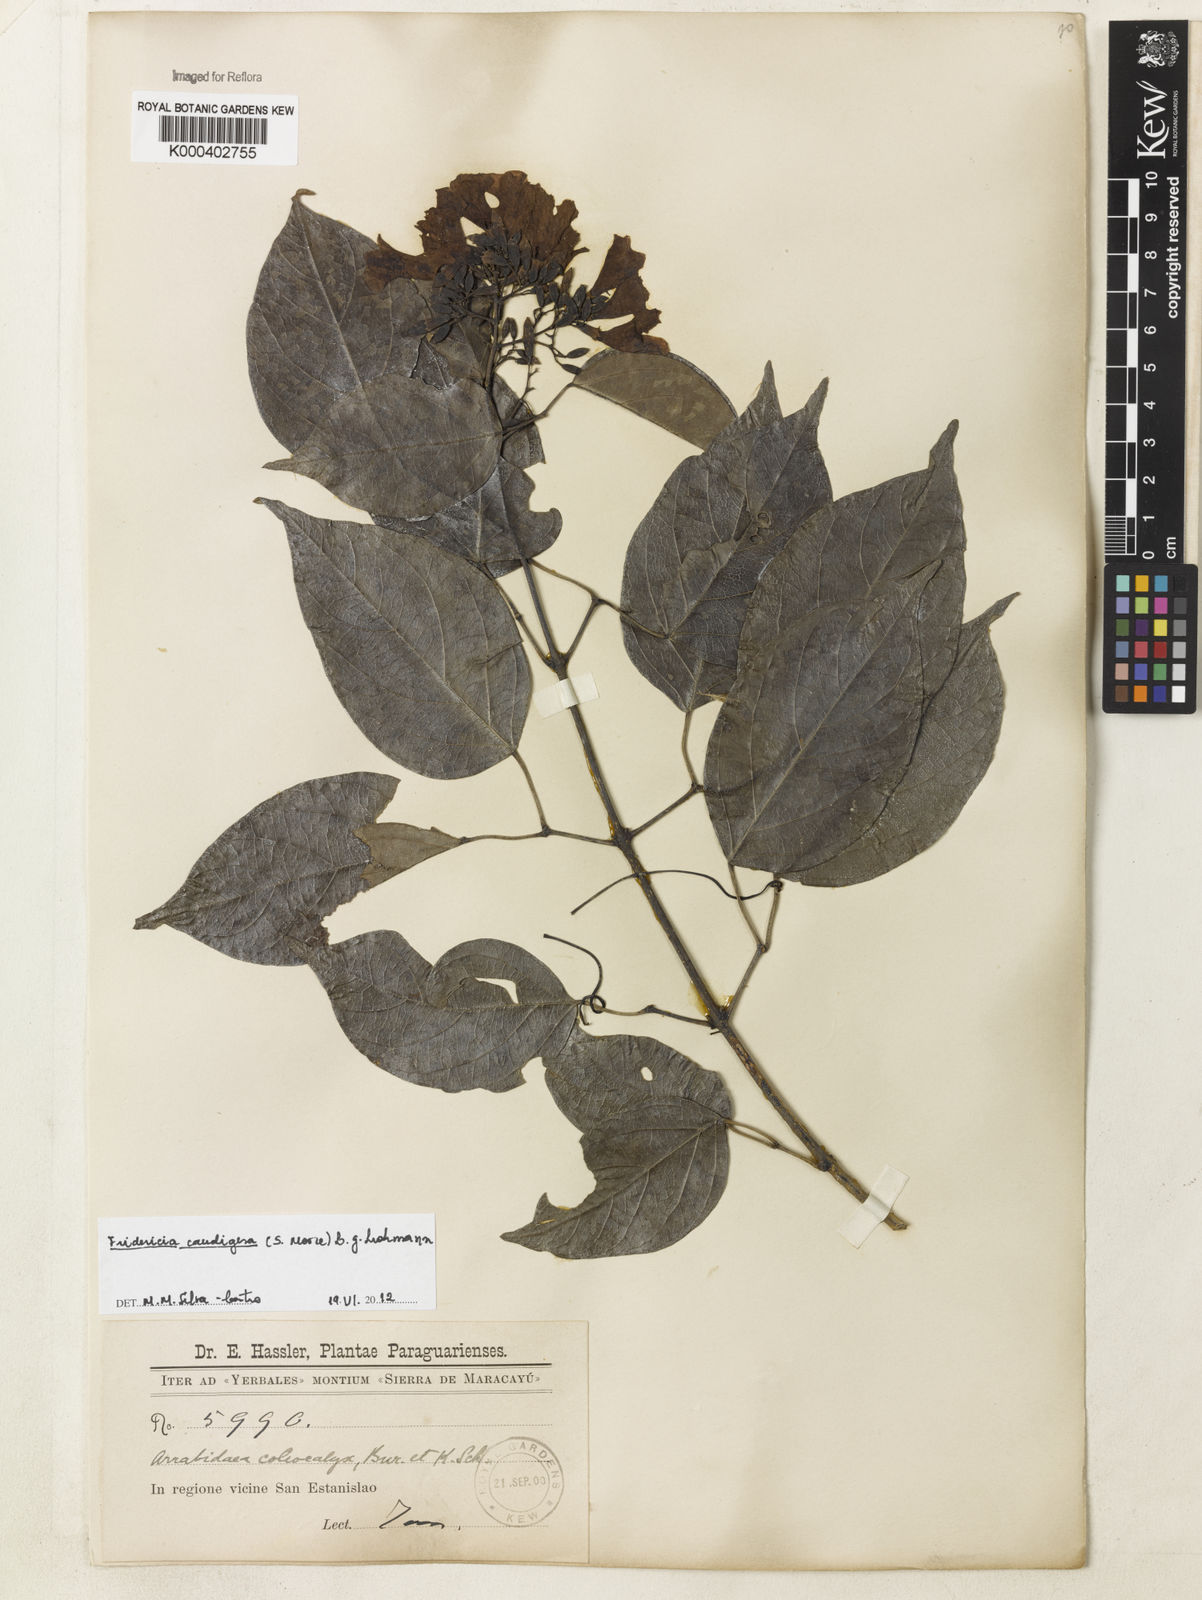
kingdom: Plantae
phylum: Tracheophyta
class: Magnoliopsida
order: Lamiales
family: Bignoniaceae
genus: Fridericia
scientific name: Fridericia caudigera
